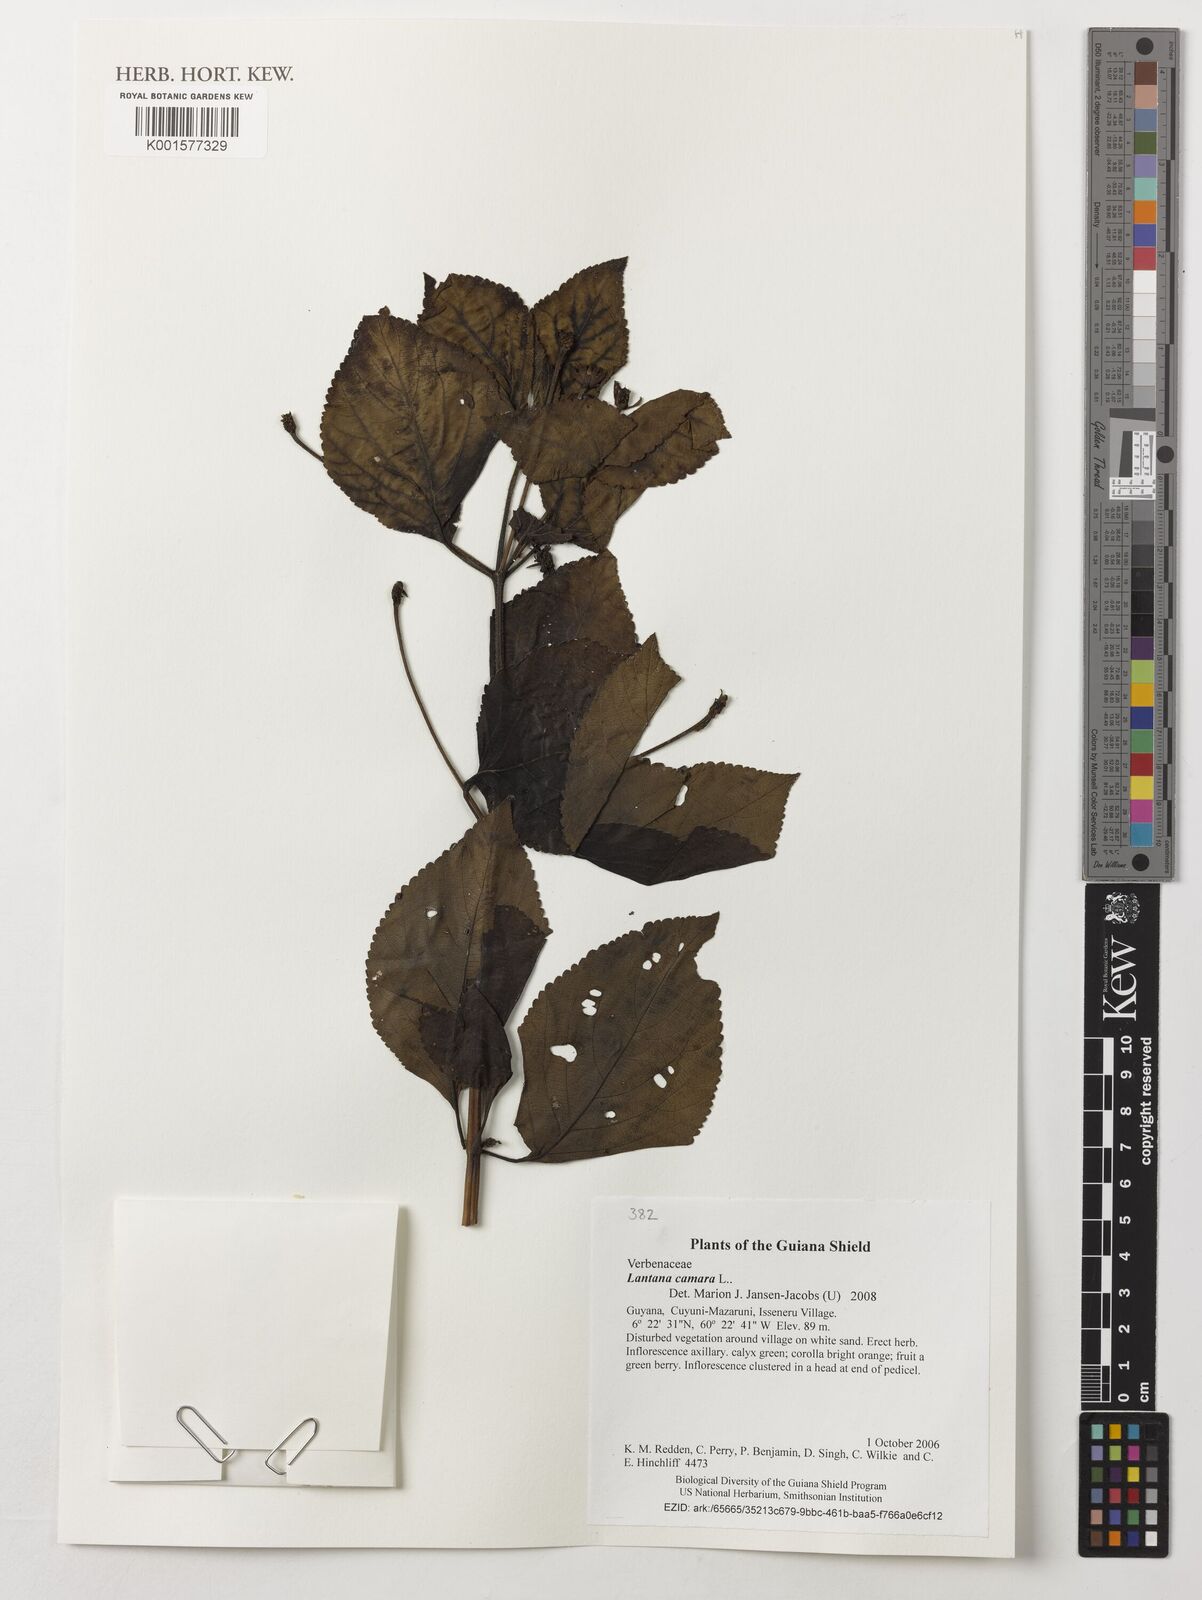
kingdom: Plantae
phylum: Tracheophyta
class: Magnoliopsida
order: Lamiales
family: Verbenaceae
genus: Lantana
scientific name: Lantana camara
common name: Lantana
